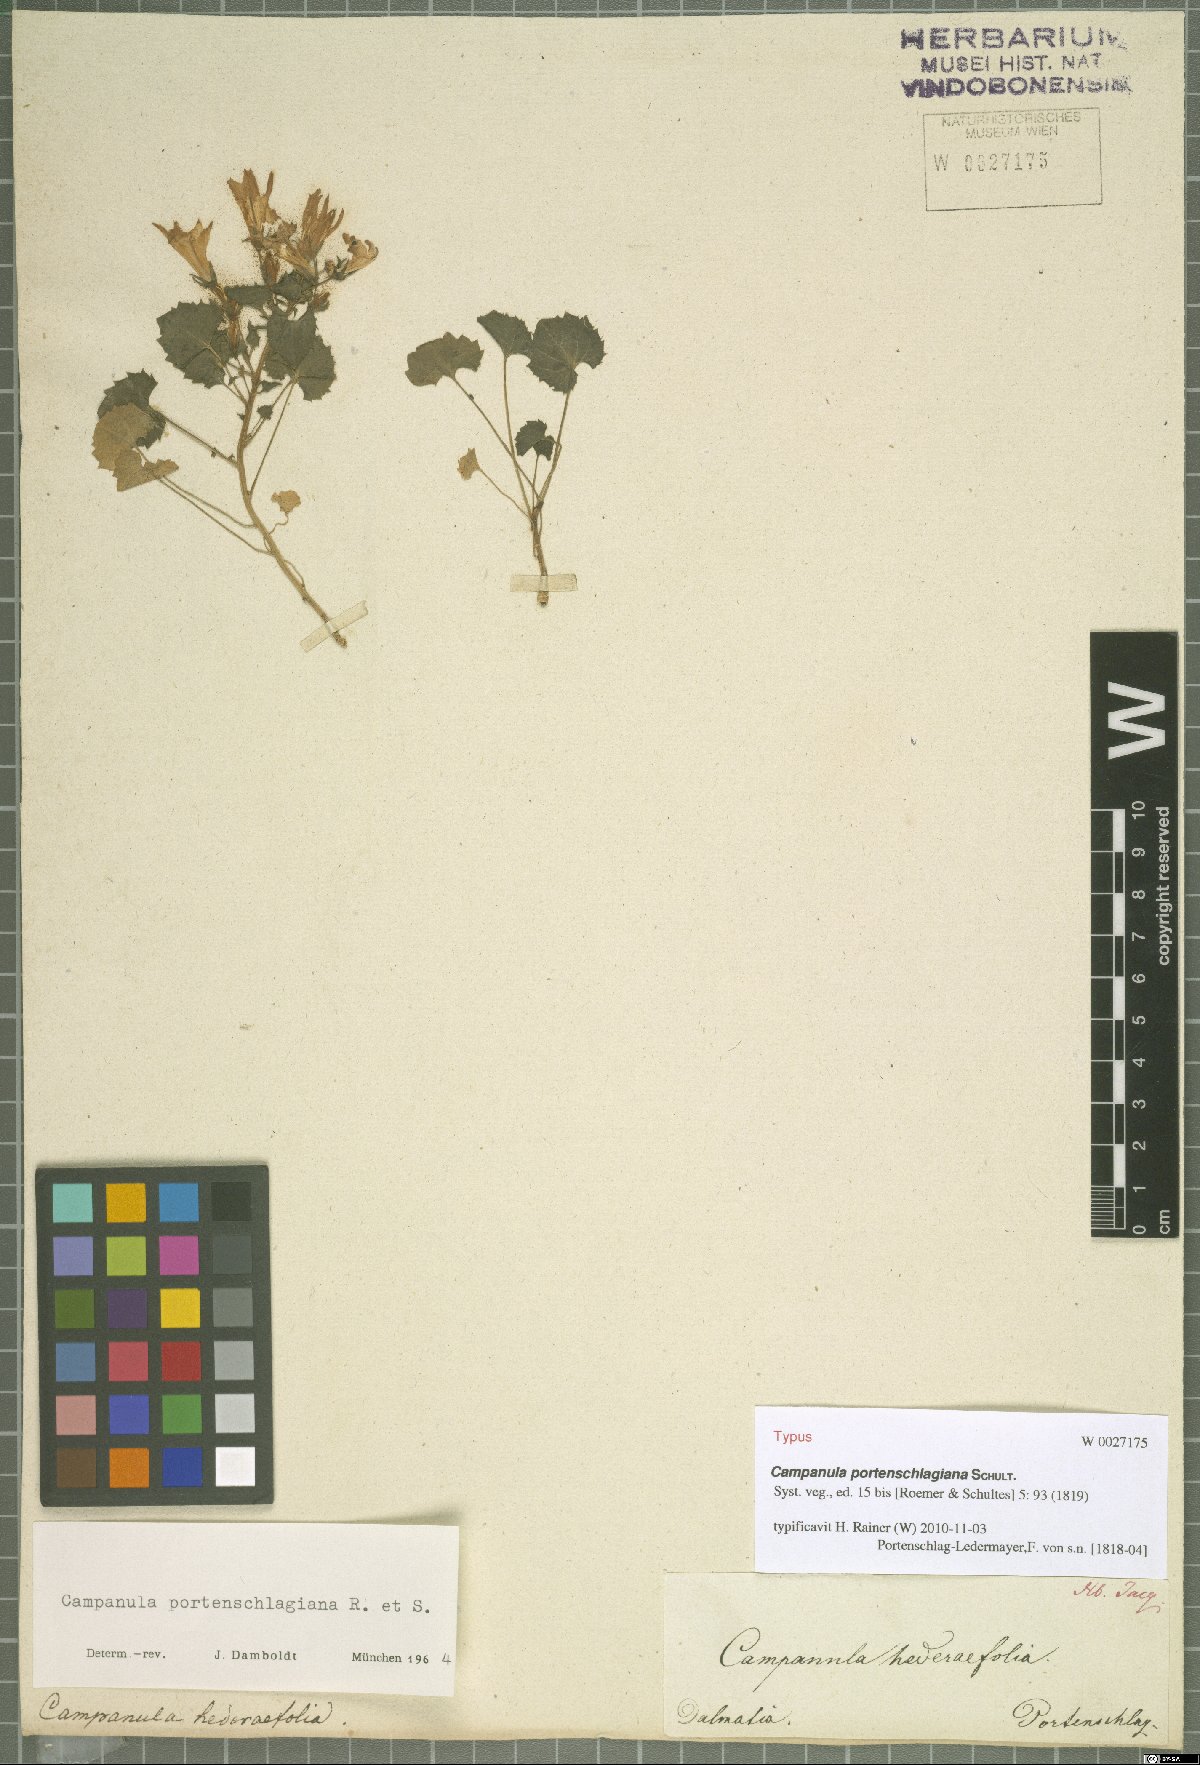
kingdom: Plantae
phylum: Tracheophyta
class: Magnoliopsida
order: Asterales
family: Campanulaceae
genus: Campanula
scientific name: Campanula portenschlagiana
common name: Adria bellflower
